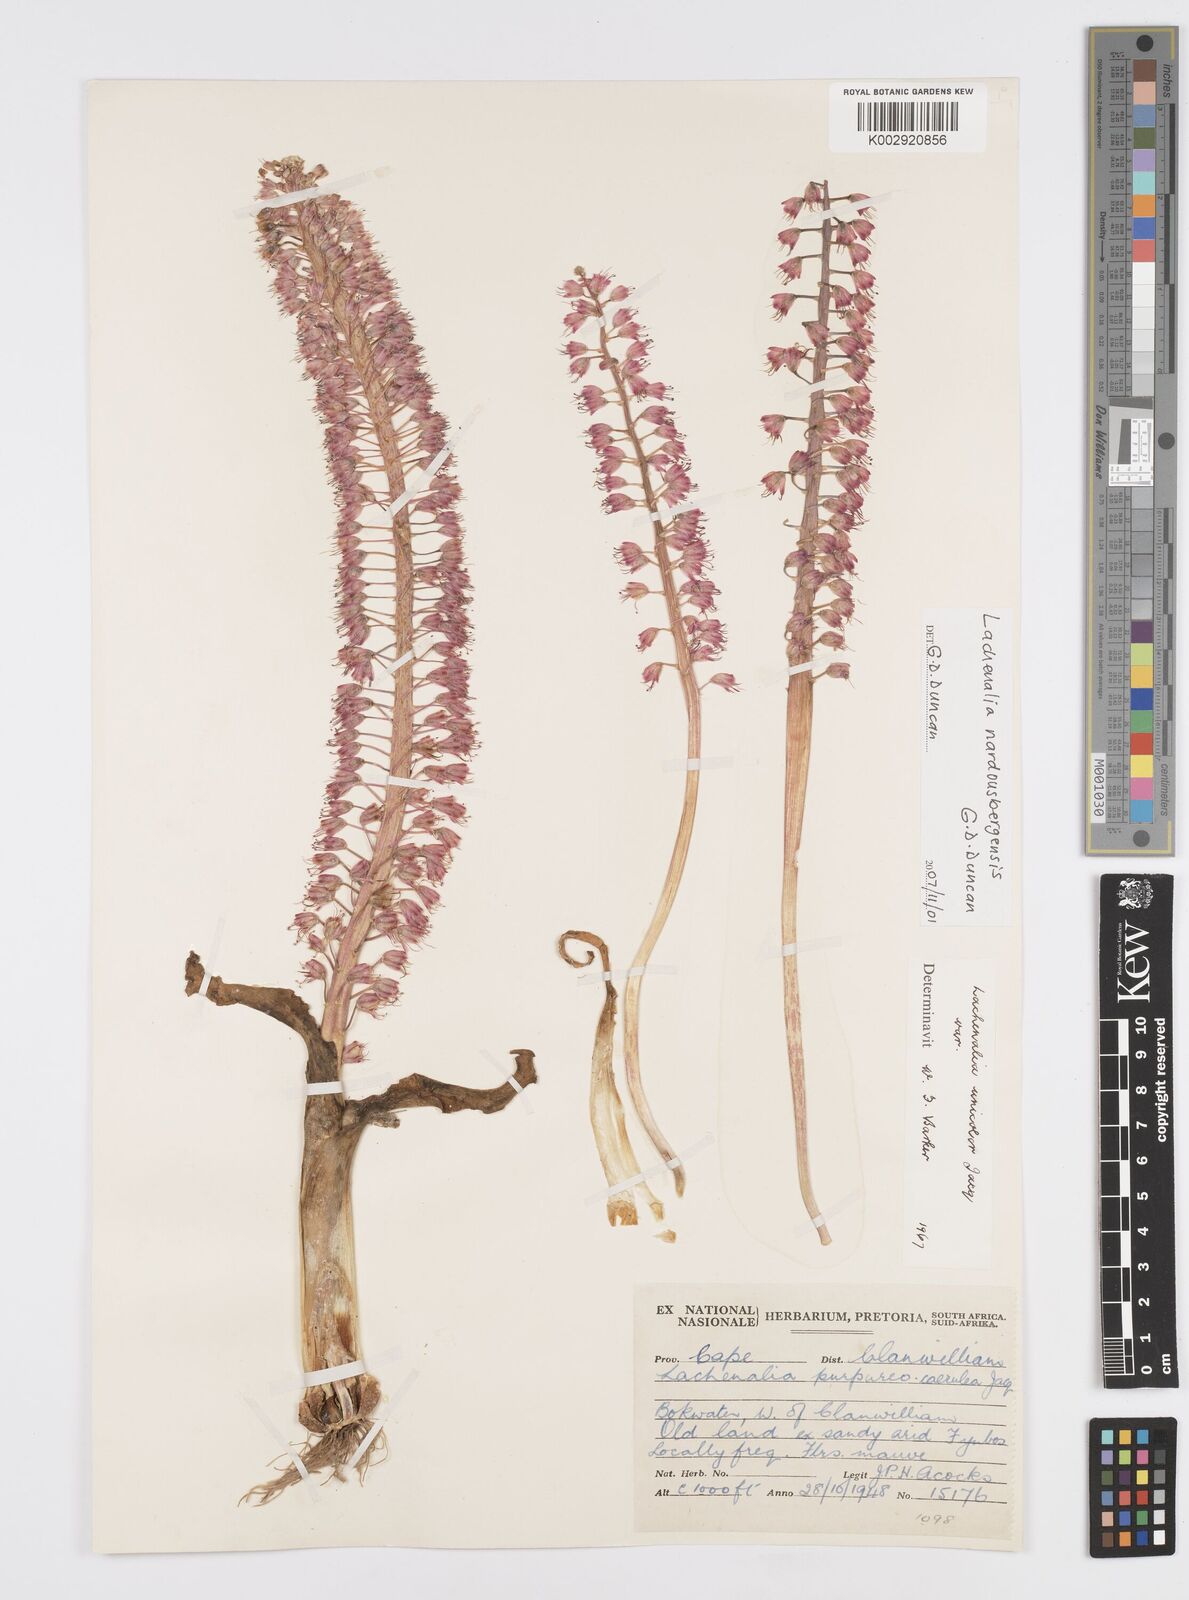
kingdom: Plantae
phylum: Tracheophyta
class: Liliopsida
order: Asparagales
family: Asparagaceae
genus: Lachenalia
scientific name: Lachenalia nardousbergensis
